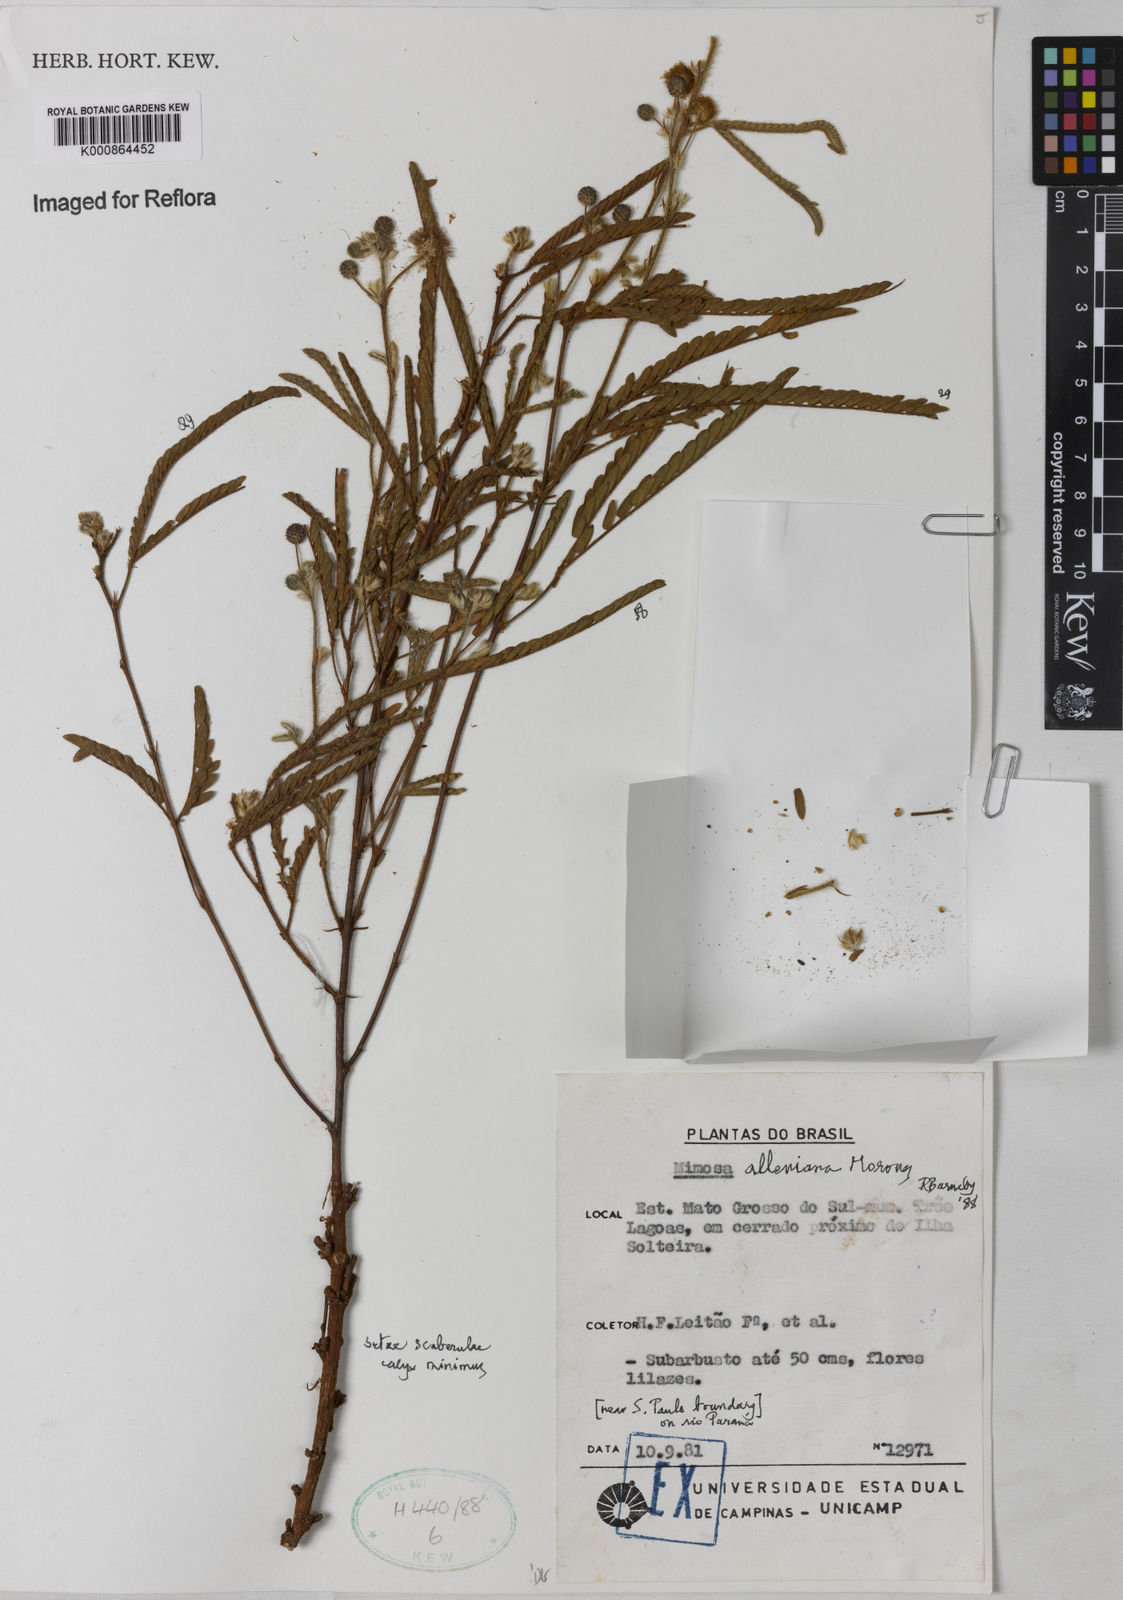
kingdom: Plantae
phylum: Tracheophyta
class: Magnoliopsida
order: Fabales
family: Fabaceae
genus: Mimosa
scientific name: Mimosa alleniana
